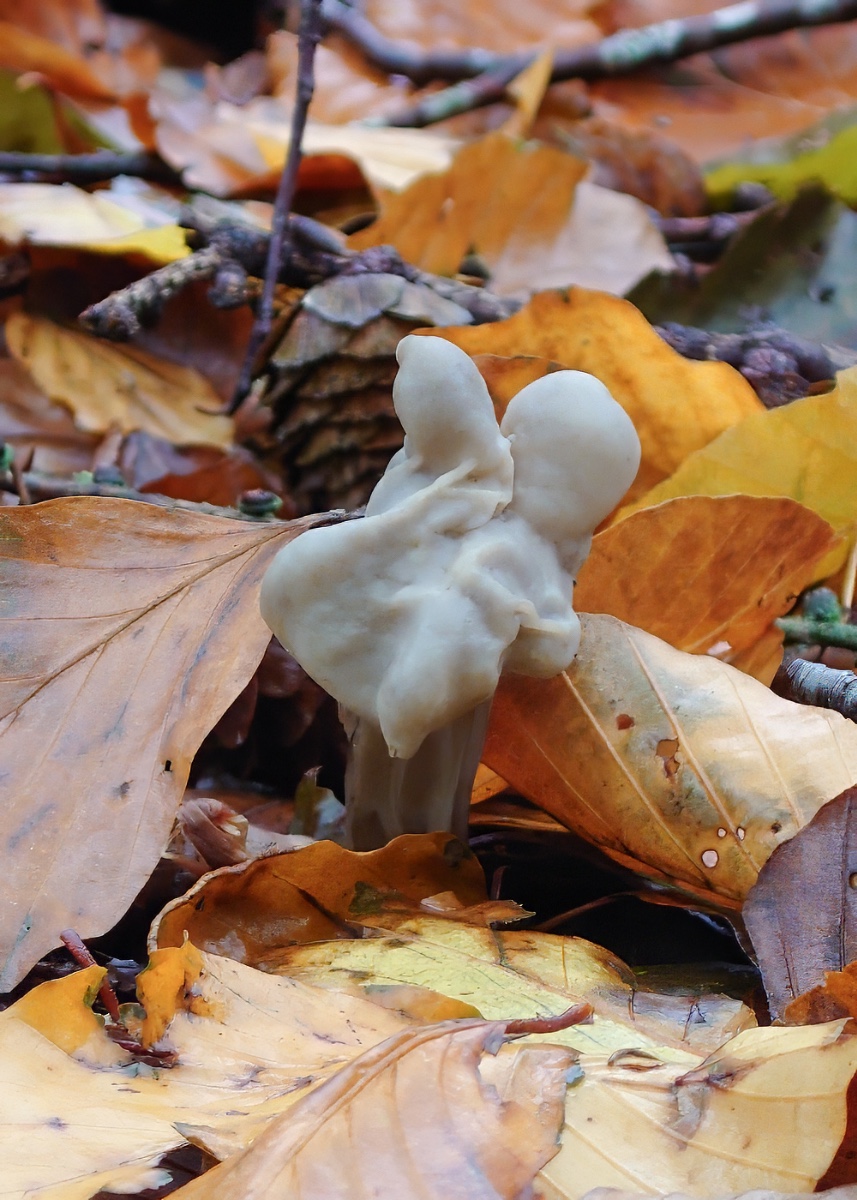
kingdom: Fungi
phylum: Ascomycota
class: Pezizomycetes
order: Pezizales
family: Helvellaceae
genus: Helvella
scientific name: Helvella lacunosa
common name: grubet foldhat
